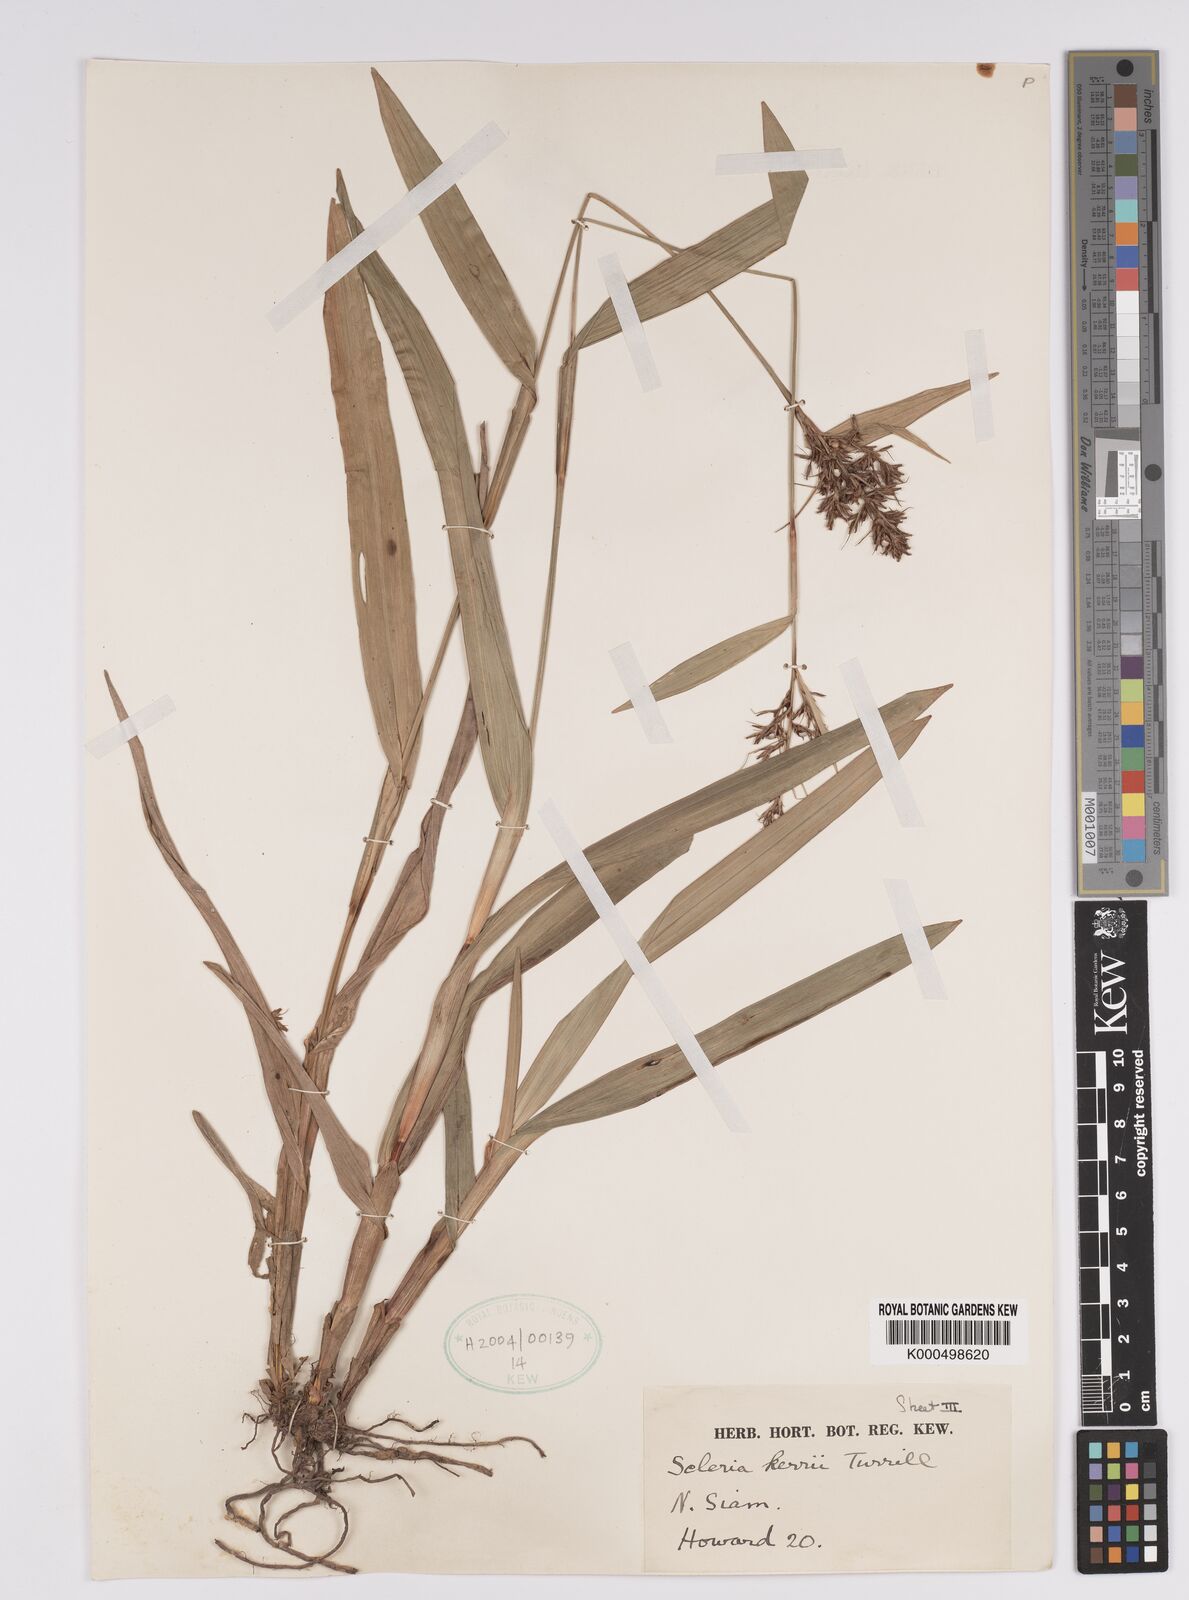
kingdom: Plantae
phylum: Tracheophyta
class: Liliopsida
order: Poales
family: Cyperaceae
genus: Scleria
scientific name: Scleria kerrii
